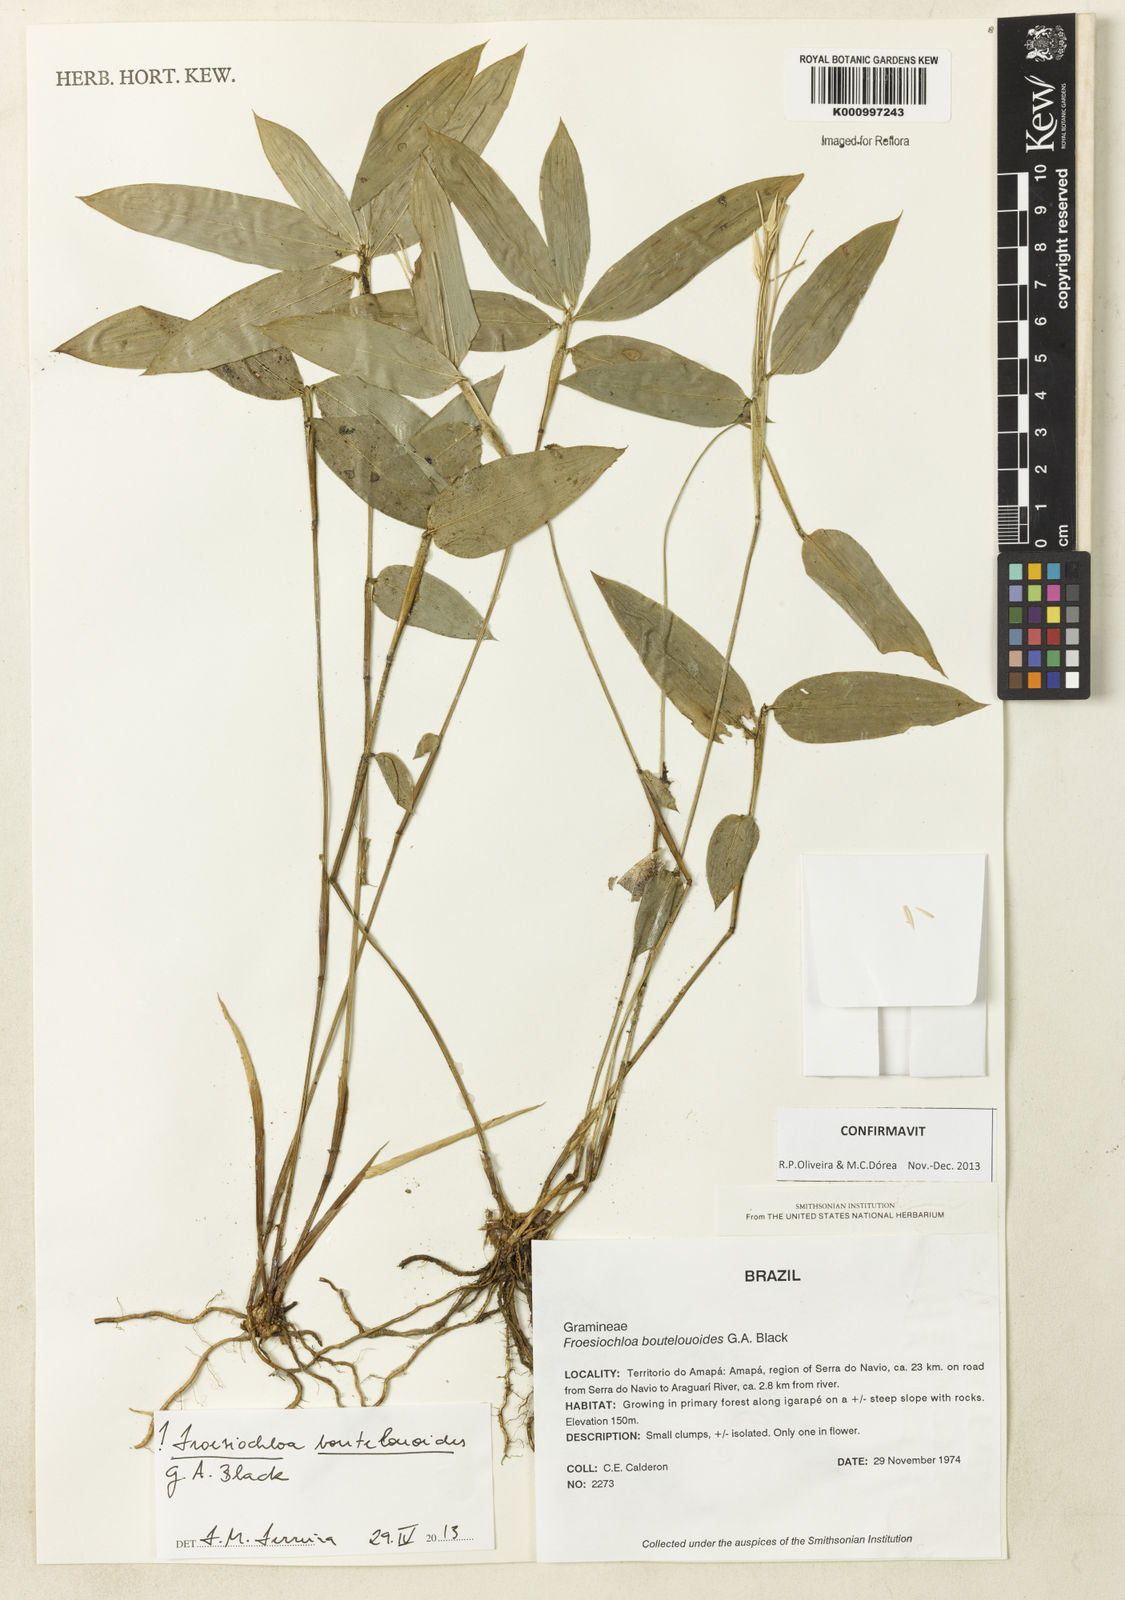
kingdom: Plantae
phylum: Tracheophyta
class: Liliopsida
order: Poales
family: Poaceae
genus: Froesiochloa
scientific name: Froesiochloa boutelouoides
